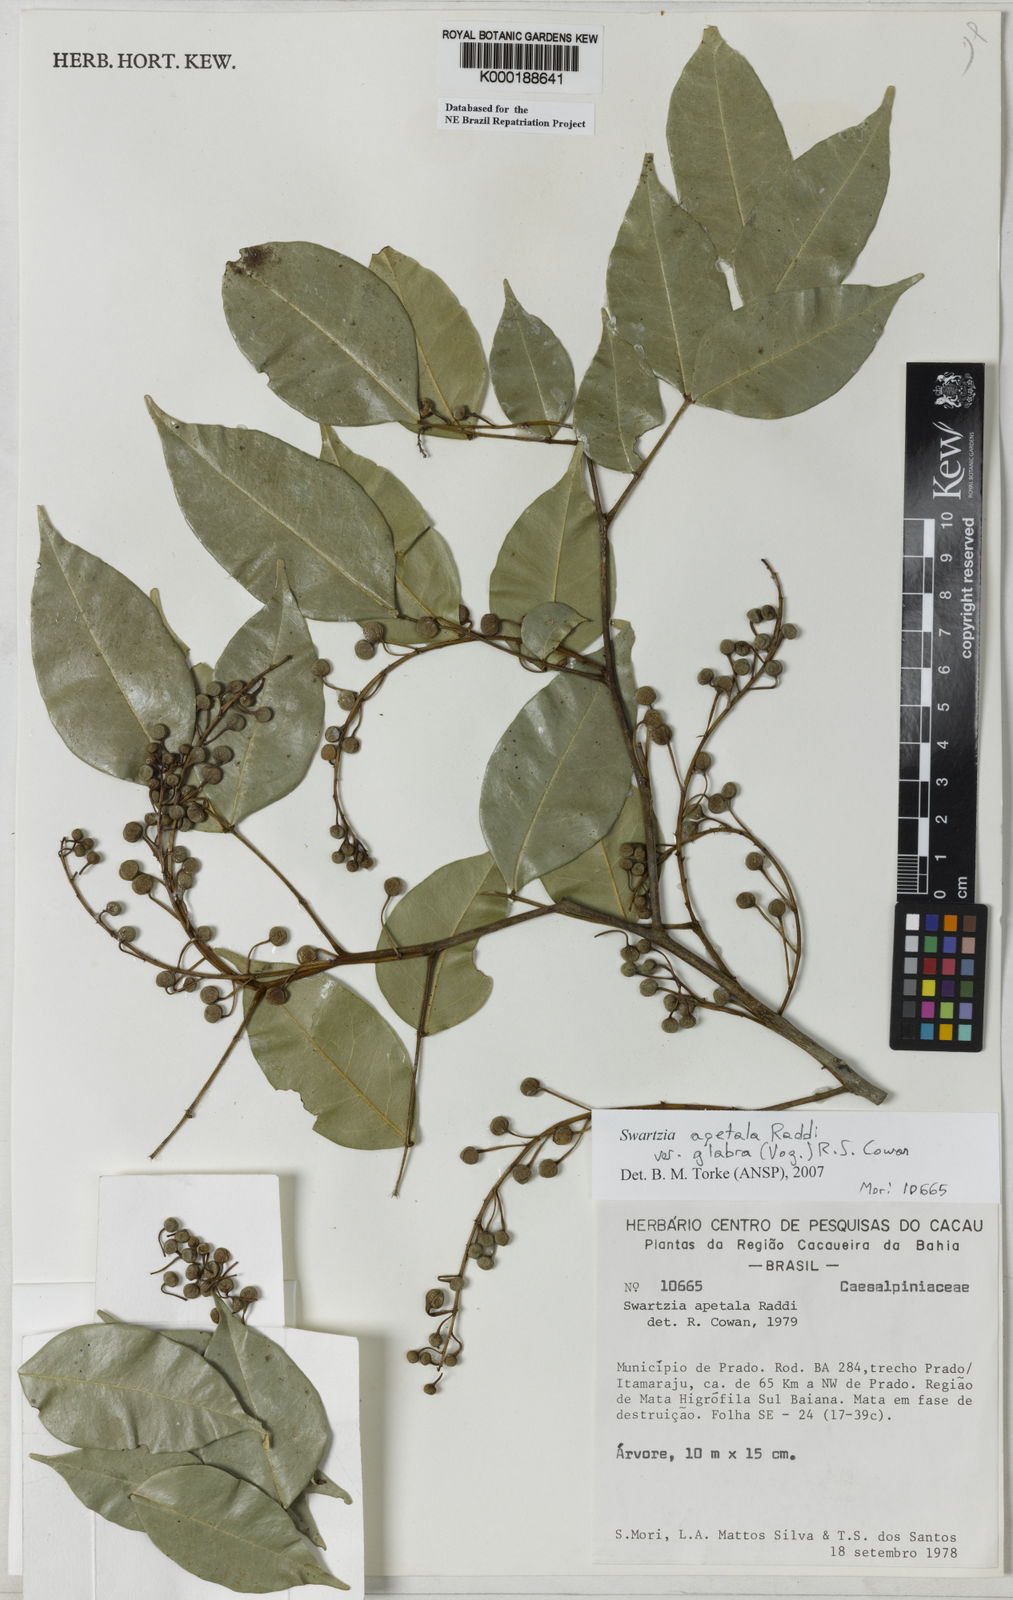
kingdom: Plantae
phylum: Tracheophyta
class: Magnoliopsida
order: Fabales
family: Fabaceae
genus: Swartzia
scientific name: Swartzia apetala
